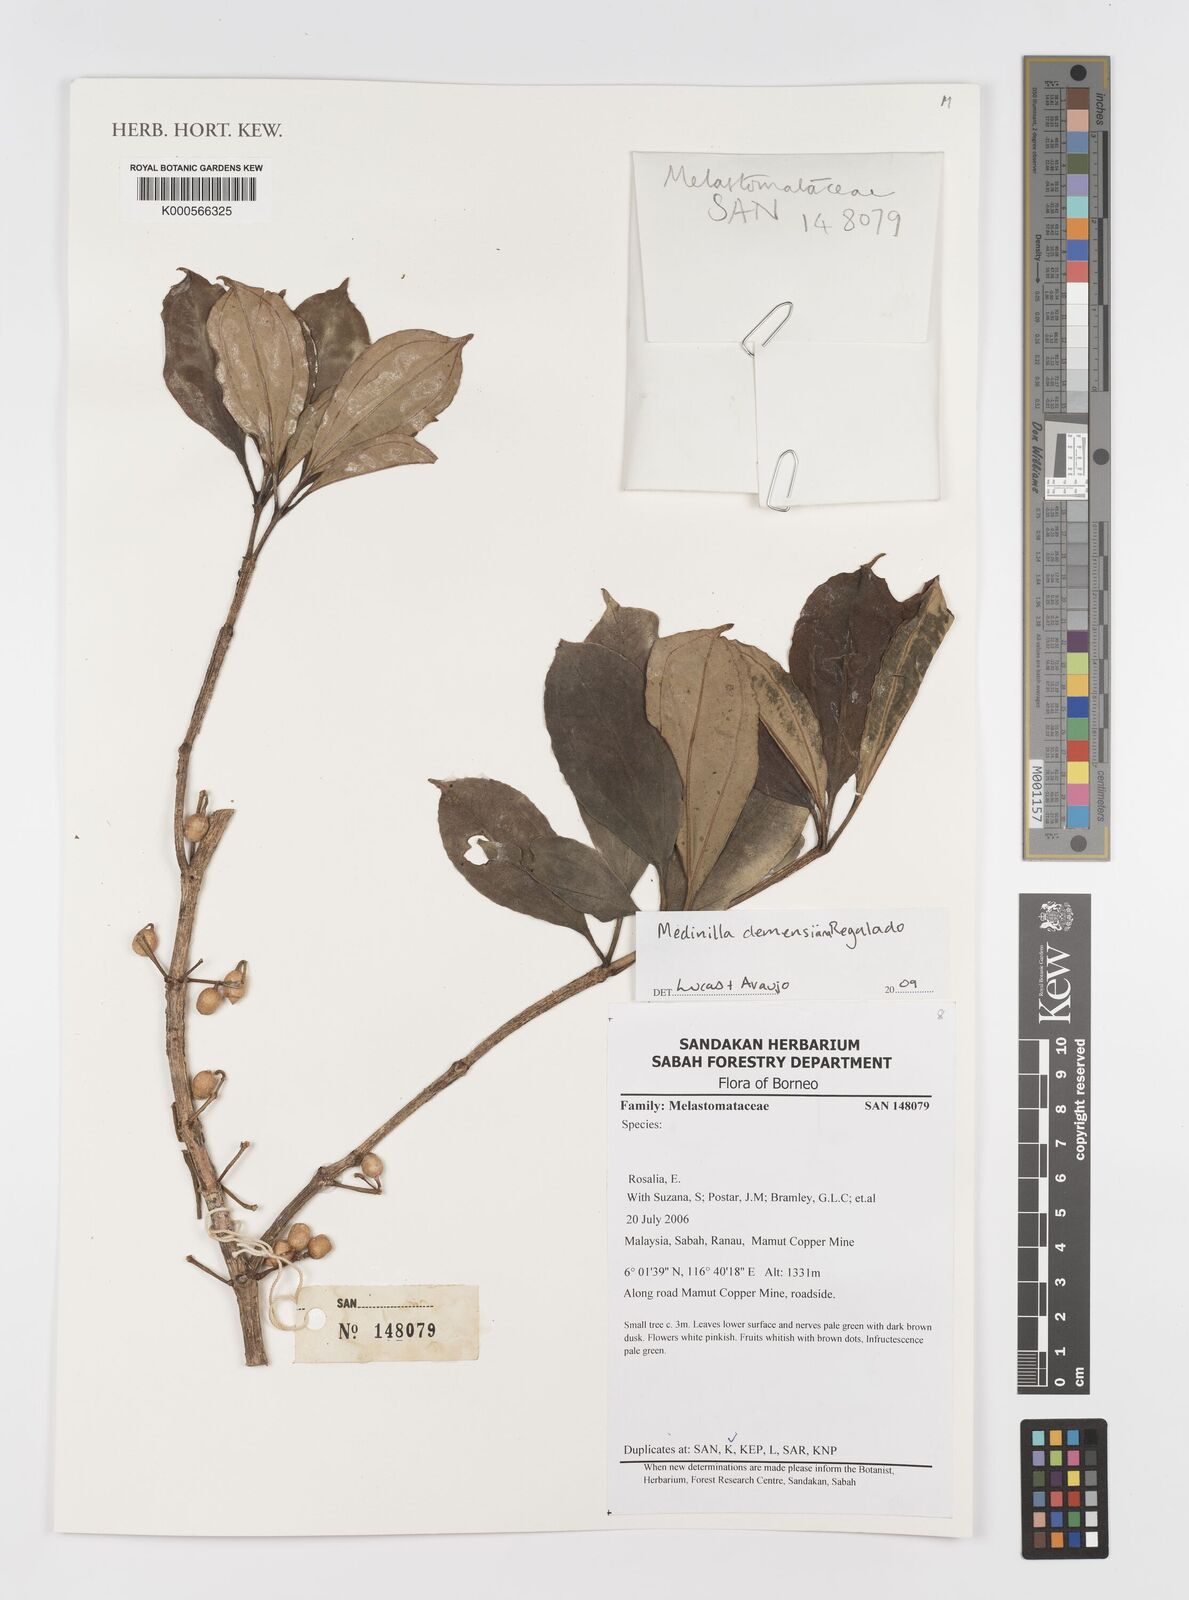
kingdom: Plantae
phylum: Tracheophyta
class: Magnoliopsida
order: Myrtales
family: Melastomataceae
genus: Medinilla
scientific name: Medinilla
